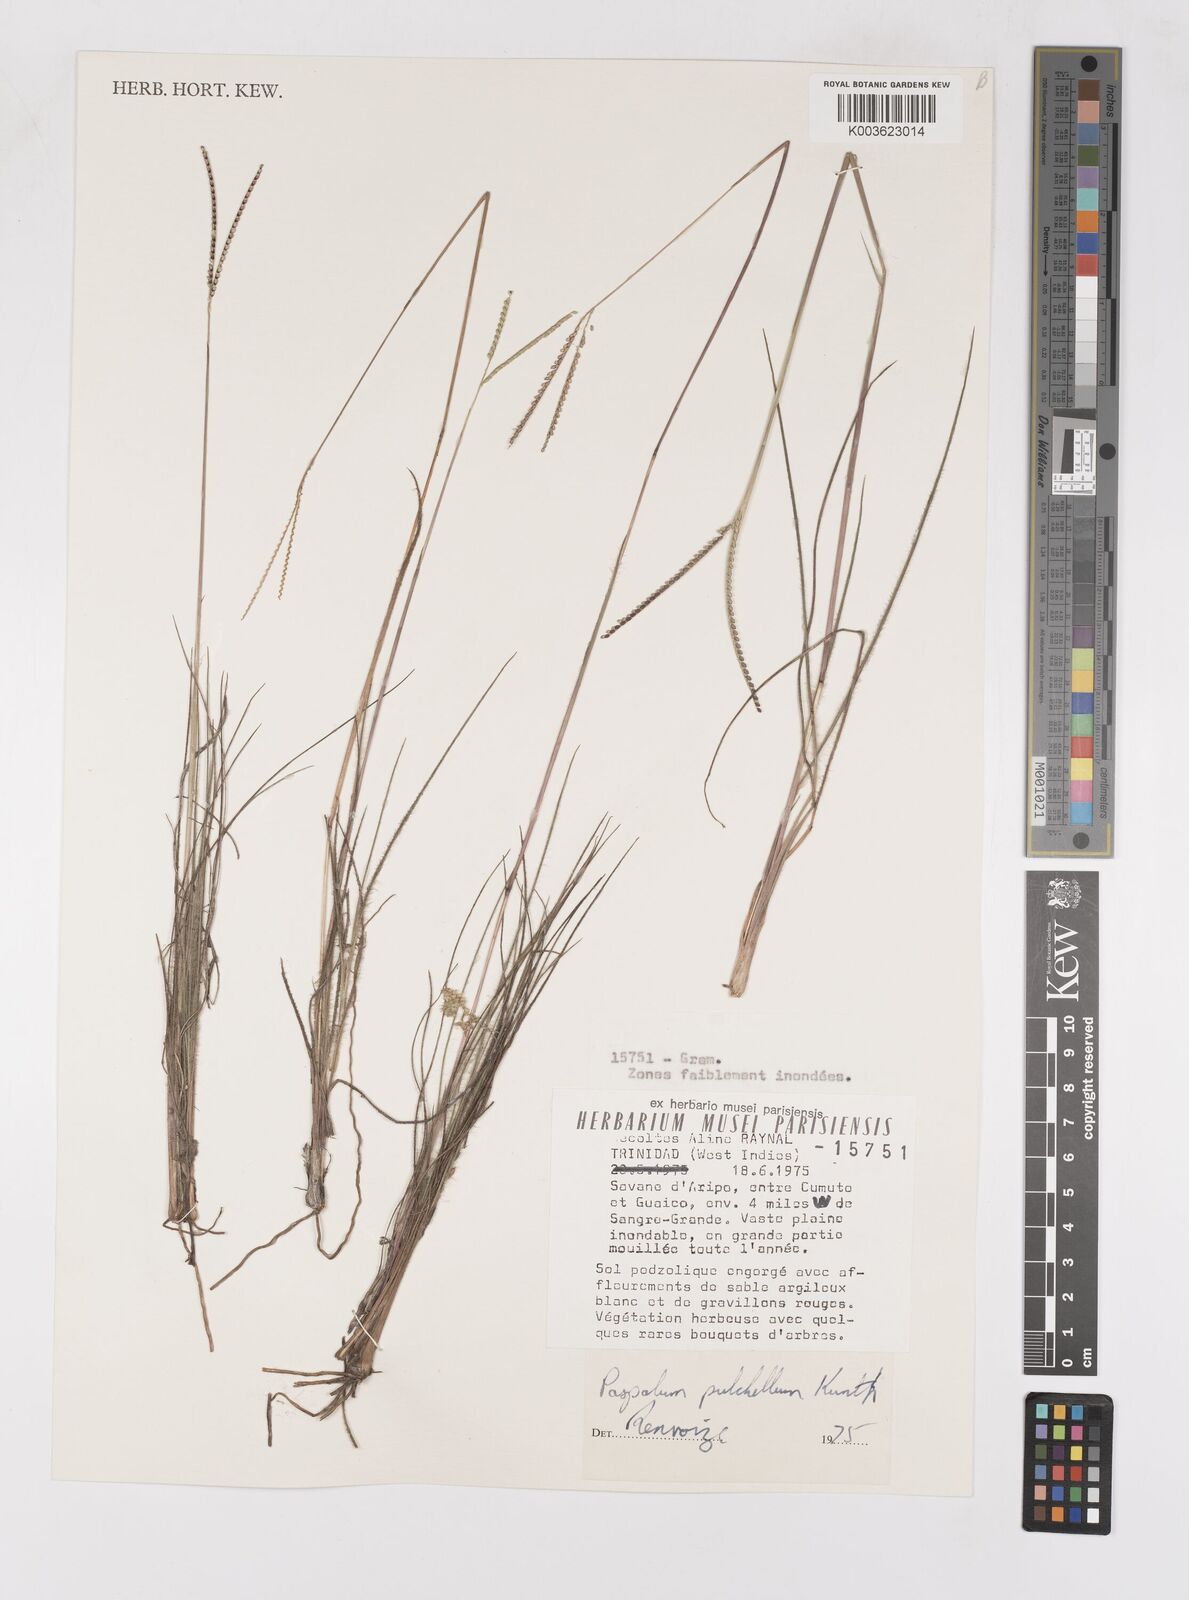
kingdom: Plantae
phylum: Tracheophyta
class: Liliopsida
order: Poales
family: Poaceae
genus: Paspalum
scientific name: Paspalum pulchellum
